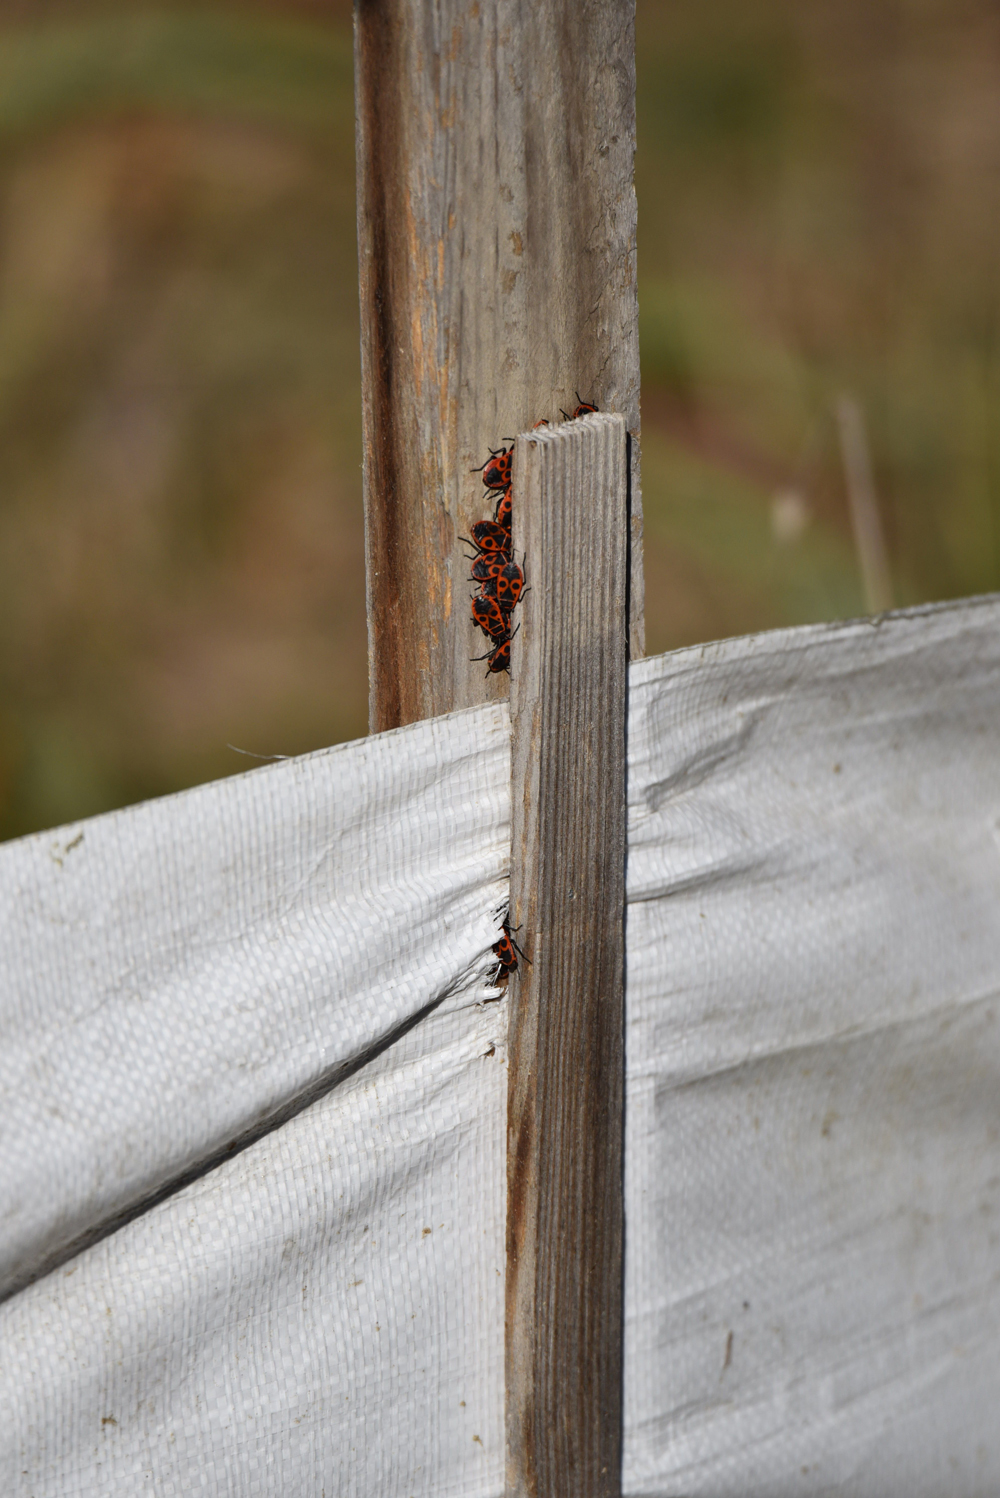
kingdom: Animalia
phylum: Arthropoda
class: Insecta
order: Hemiptera
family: Pyrrhocoridae
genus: Pyrrhocoris
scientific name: Pyrrhocoris apterus
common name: Firebug
